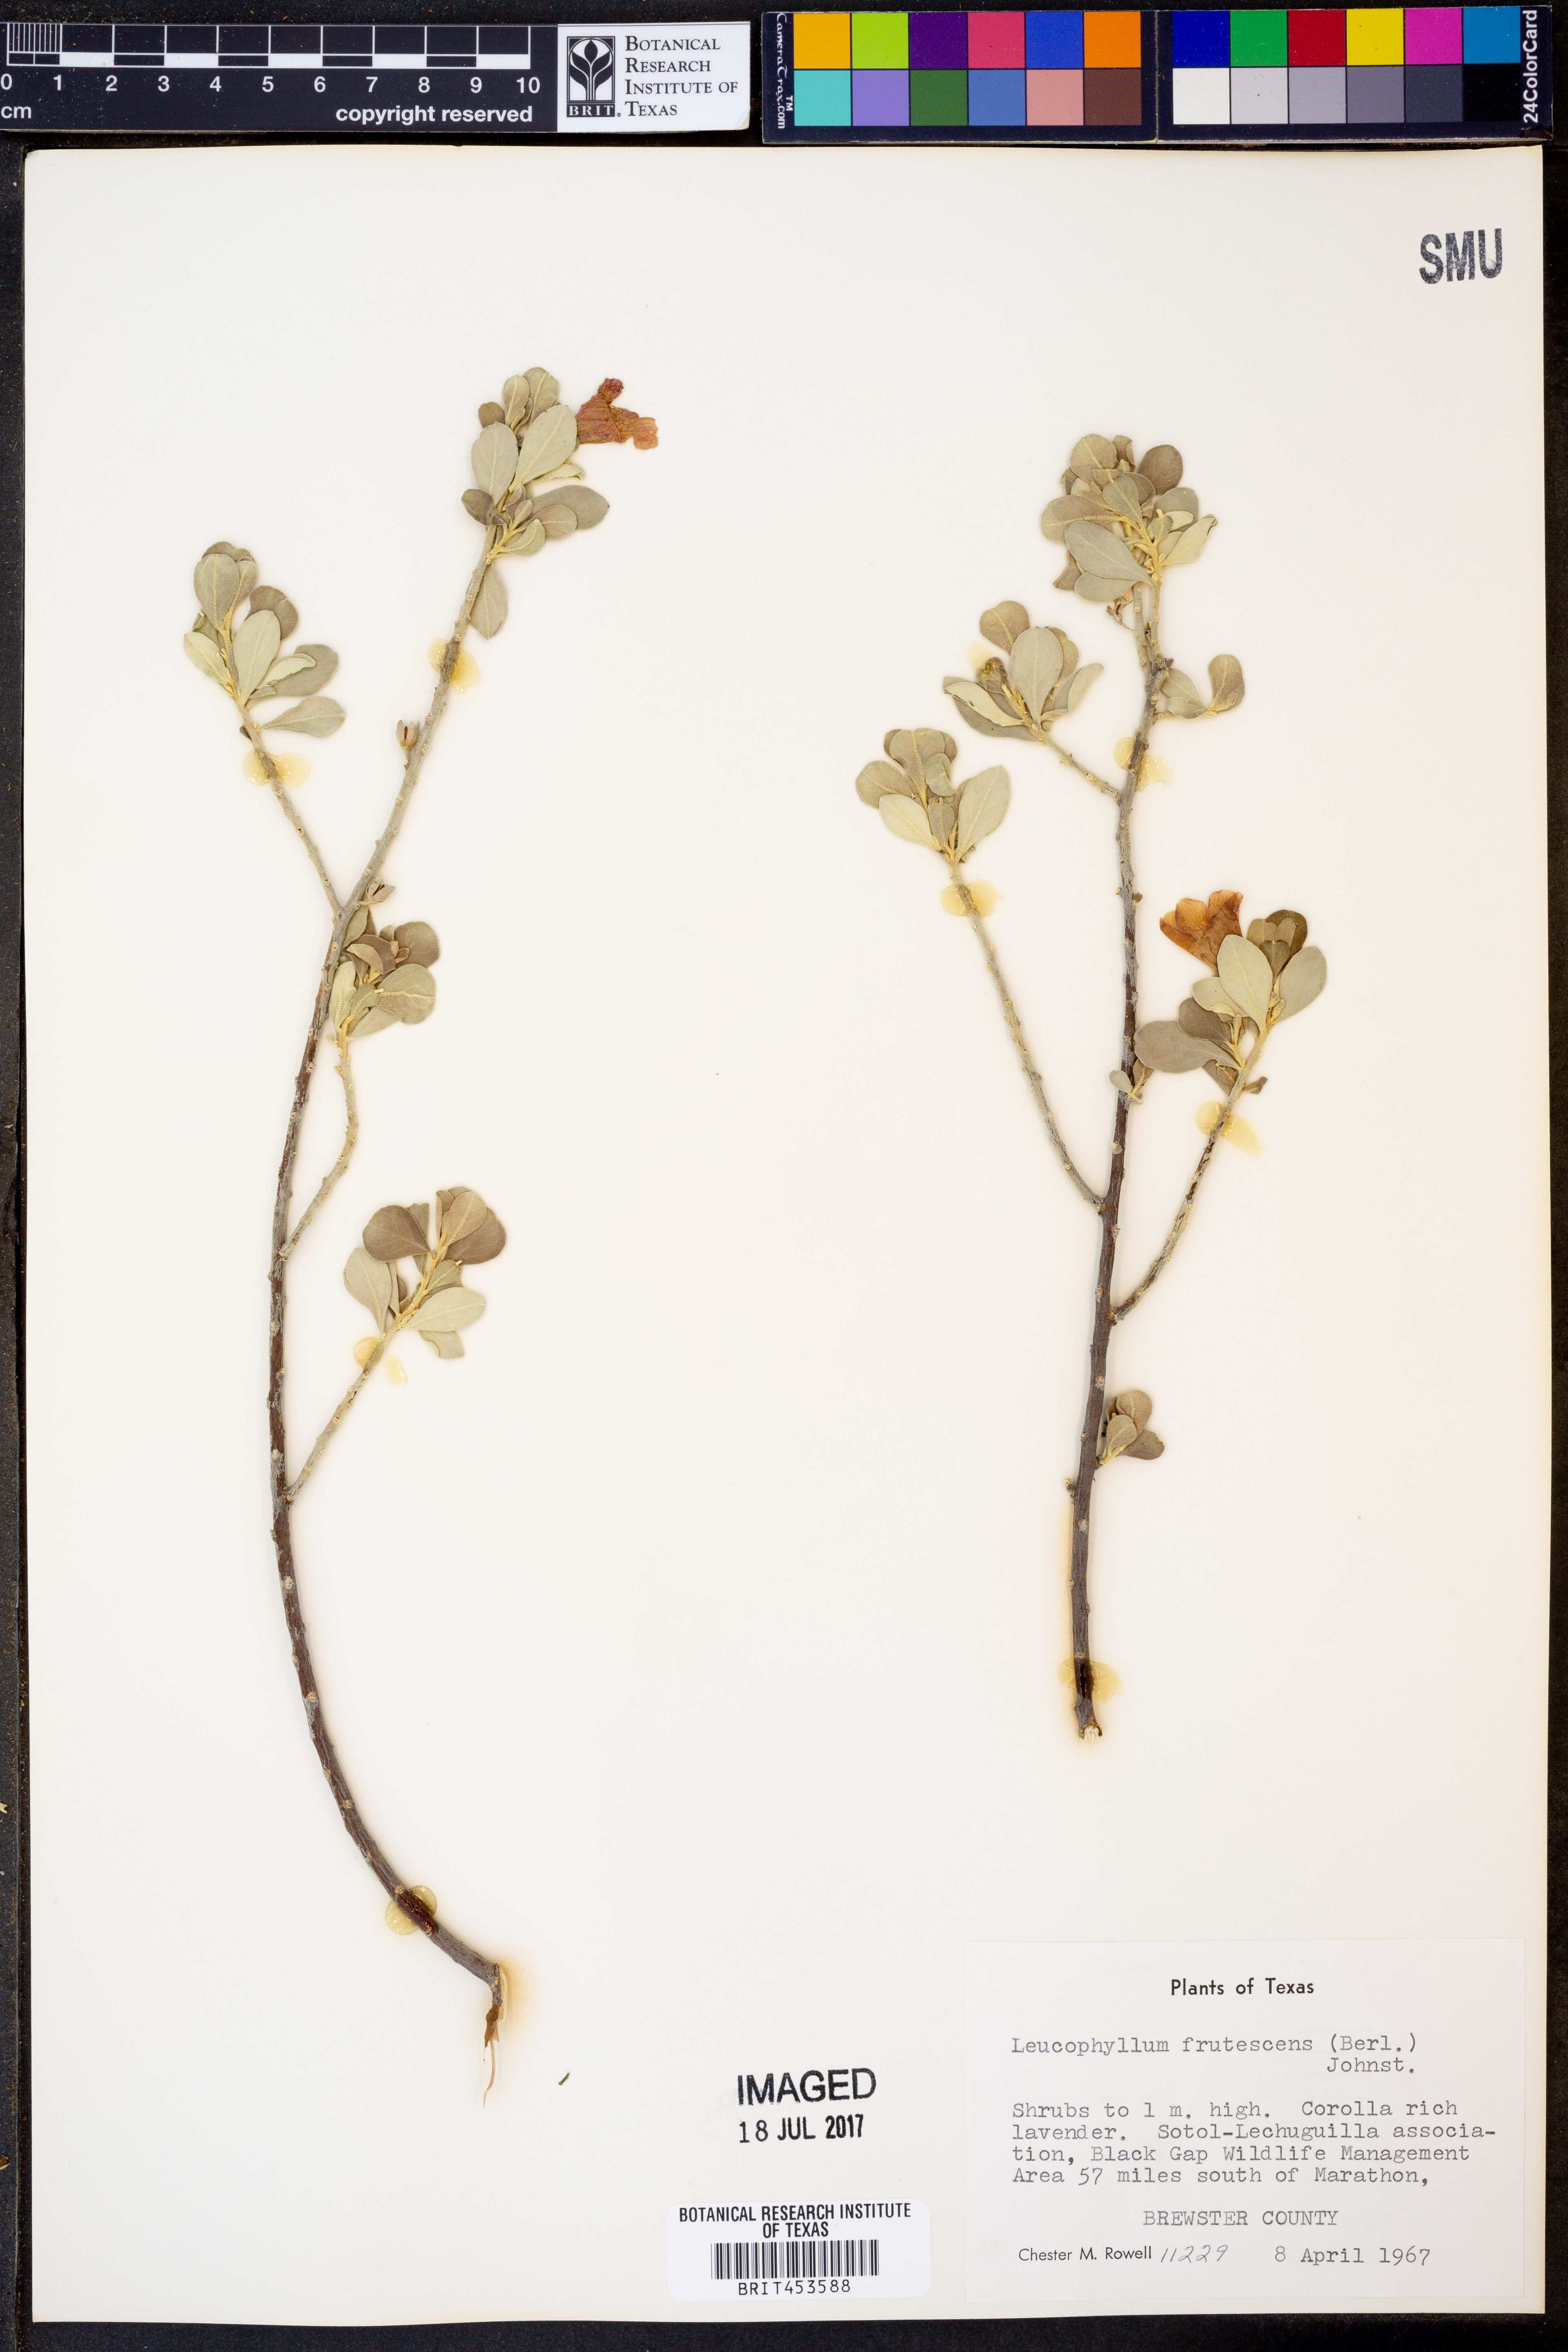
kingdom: Plantae
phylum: Tracheophyta
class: Magnoliopsida
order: Lamiales
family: Scrophulariaceae
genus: Leucophyllum
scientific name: Leucophyllum frutescens
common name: Texas silverleaf
